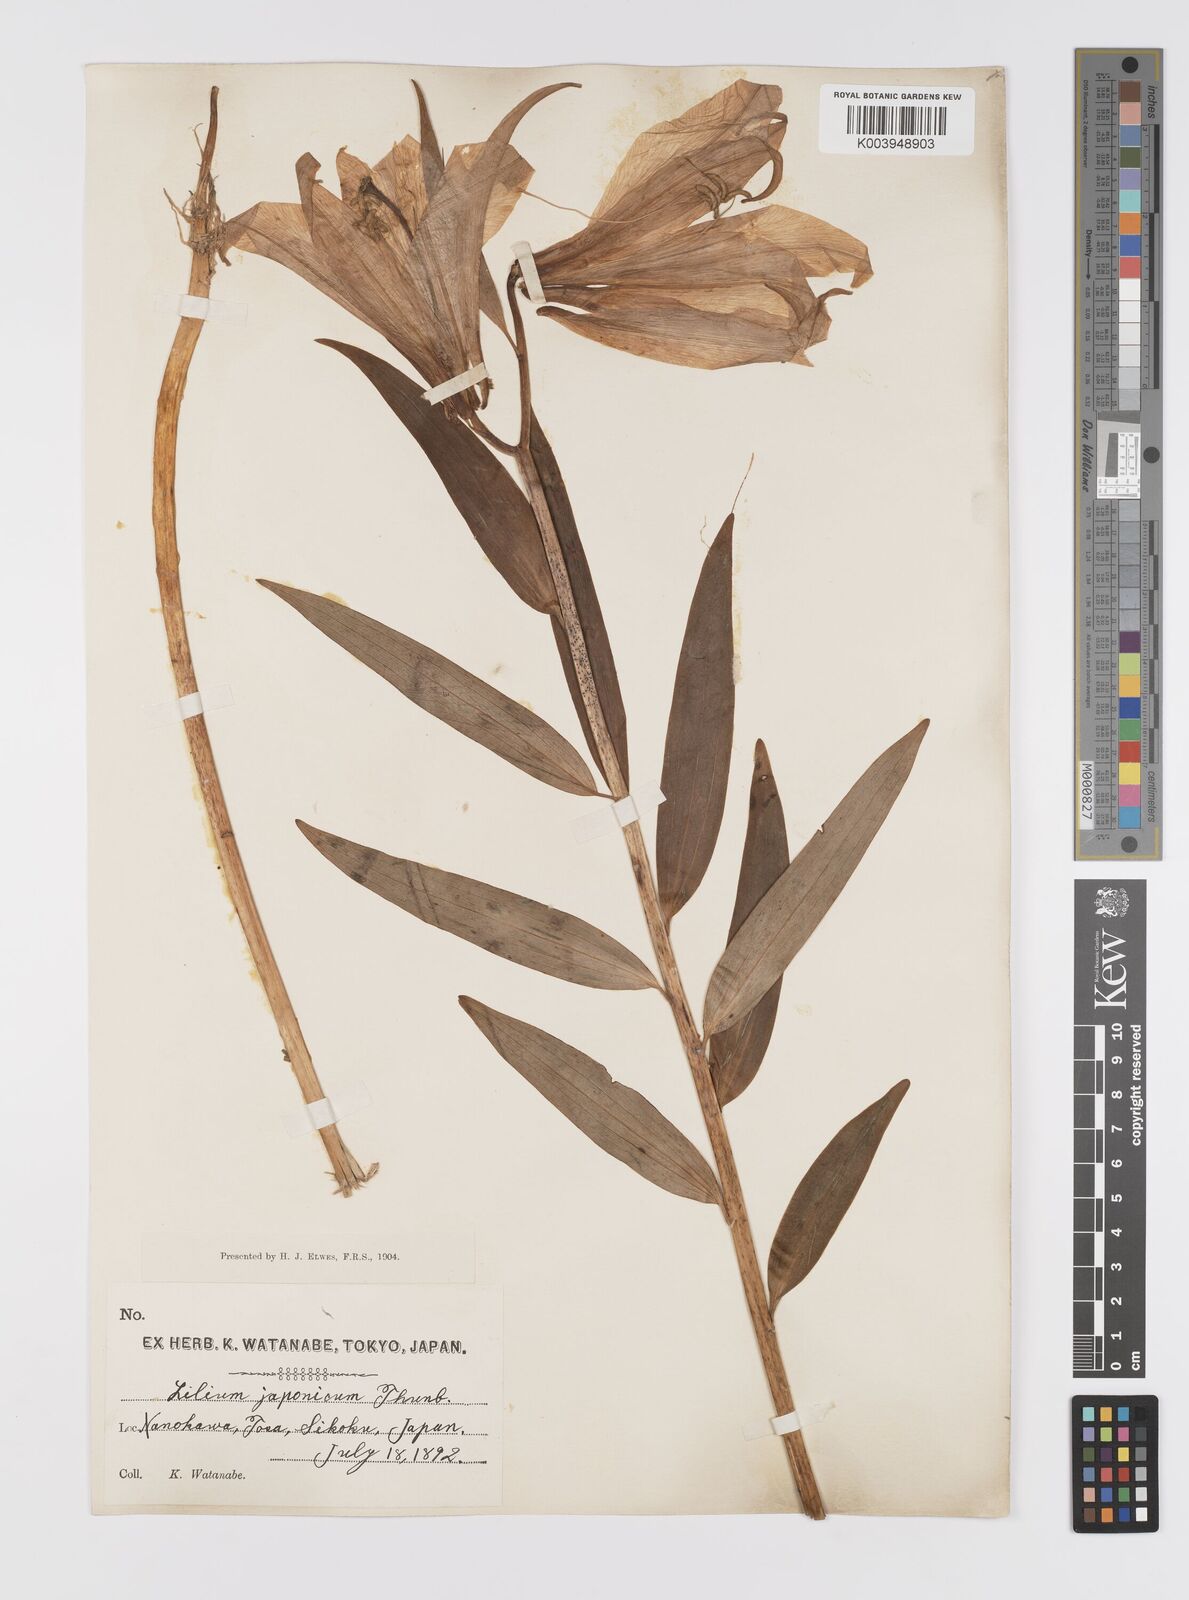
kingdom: Plantae
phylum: Tracheophyta
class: Liliopsida
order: Liliales
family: Liliaceae
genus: Lilium
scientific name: Lilium japonicum
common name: Japanese lily
